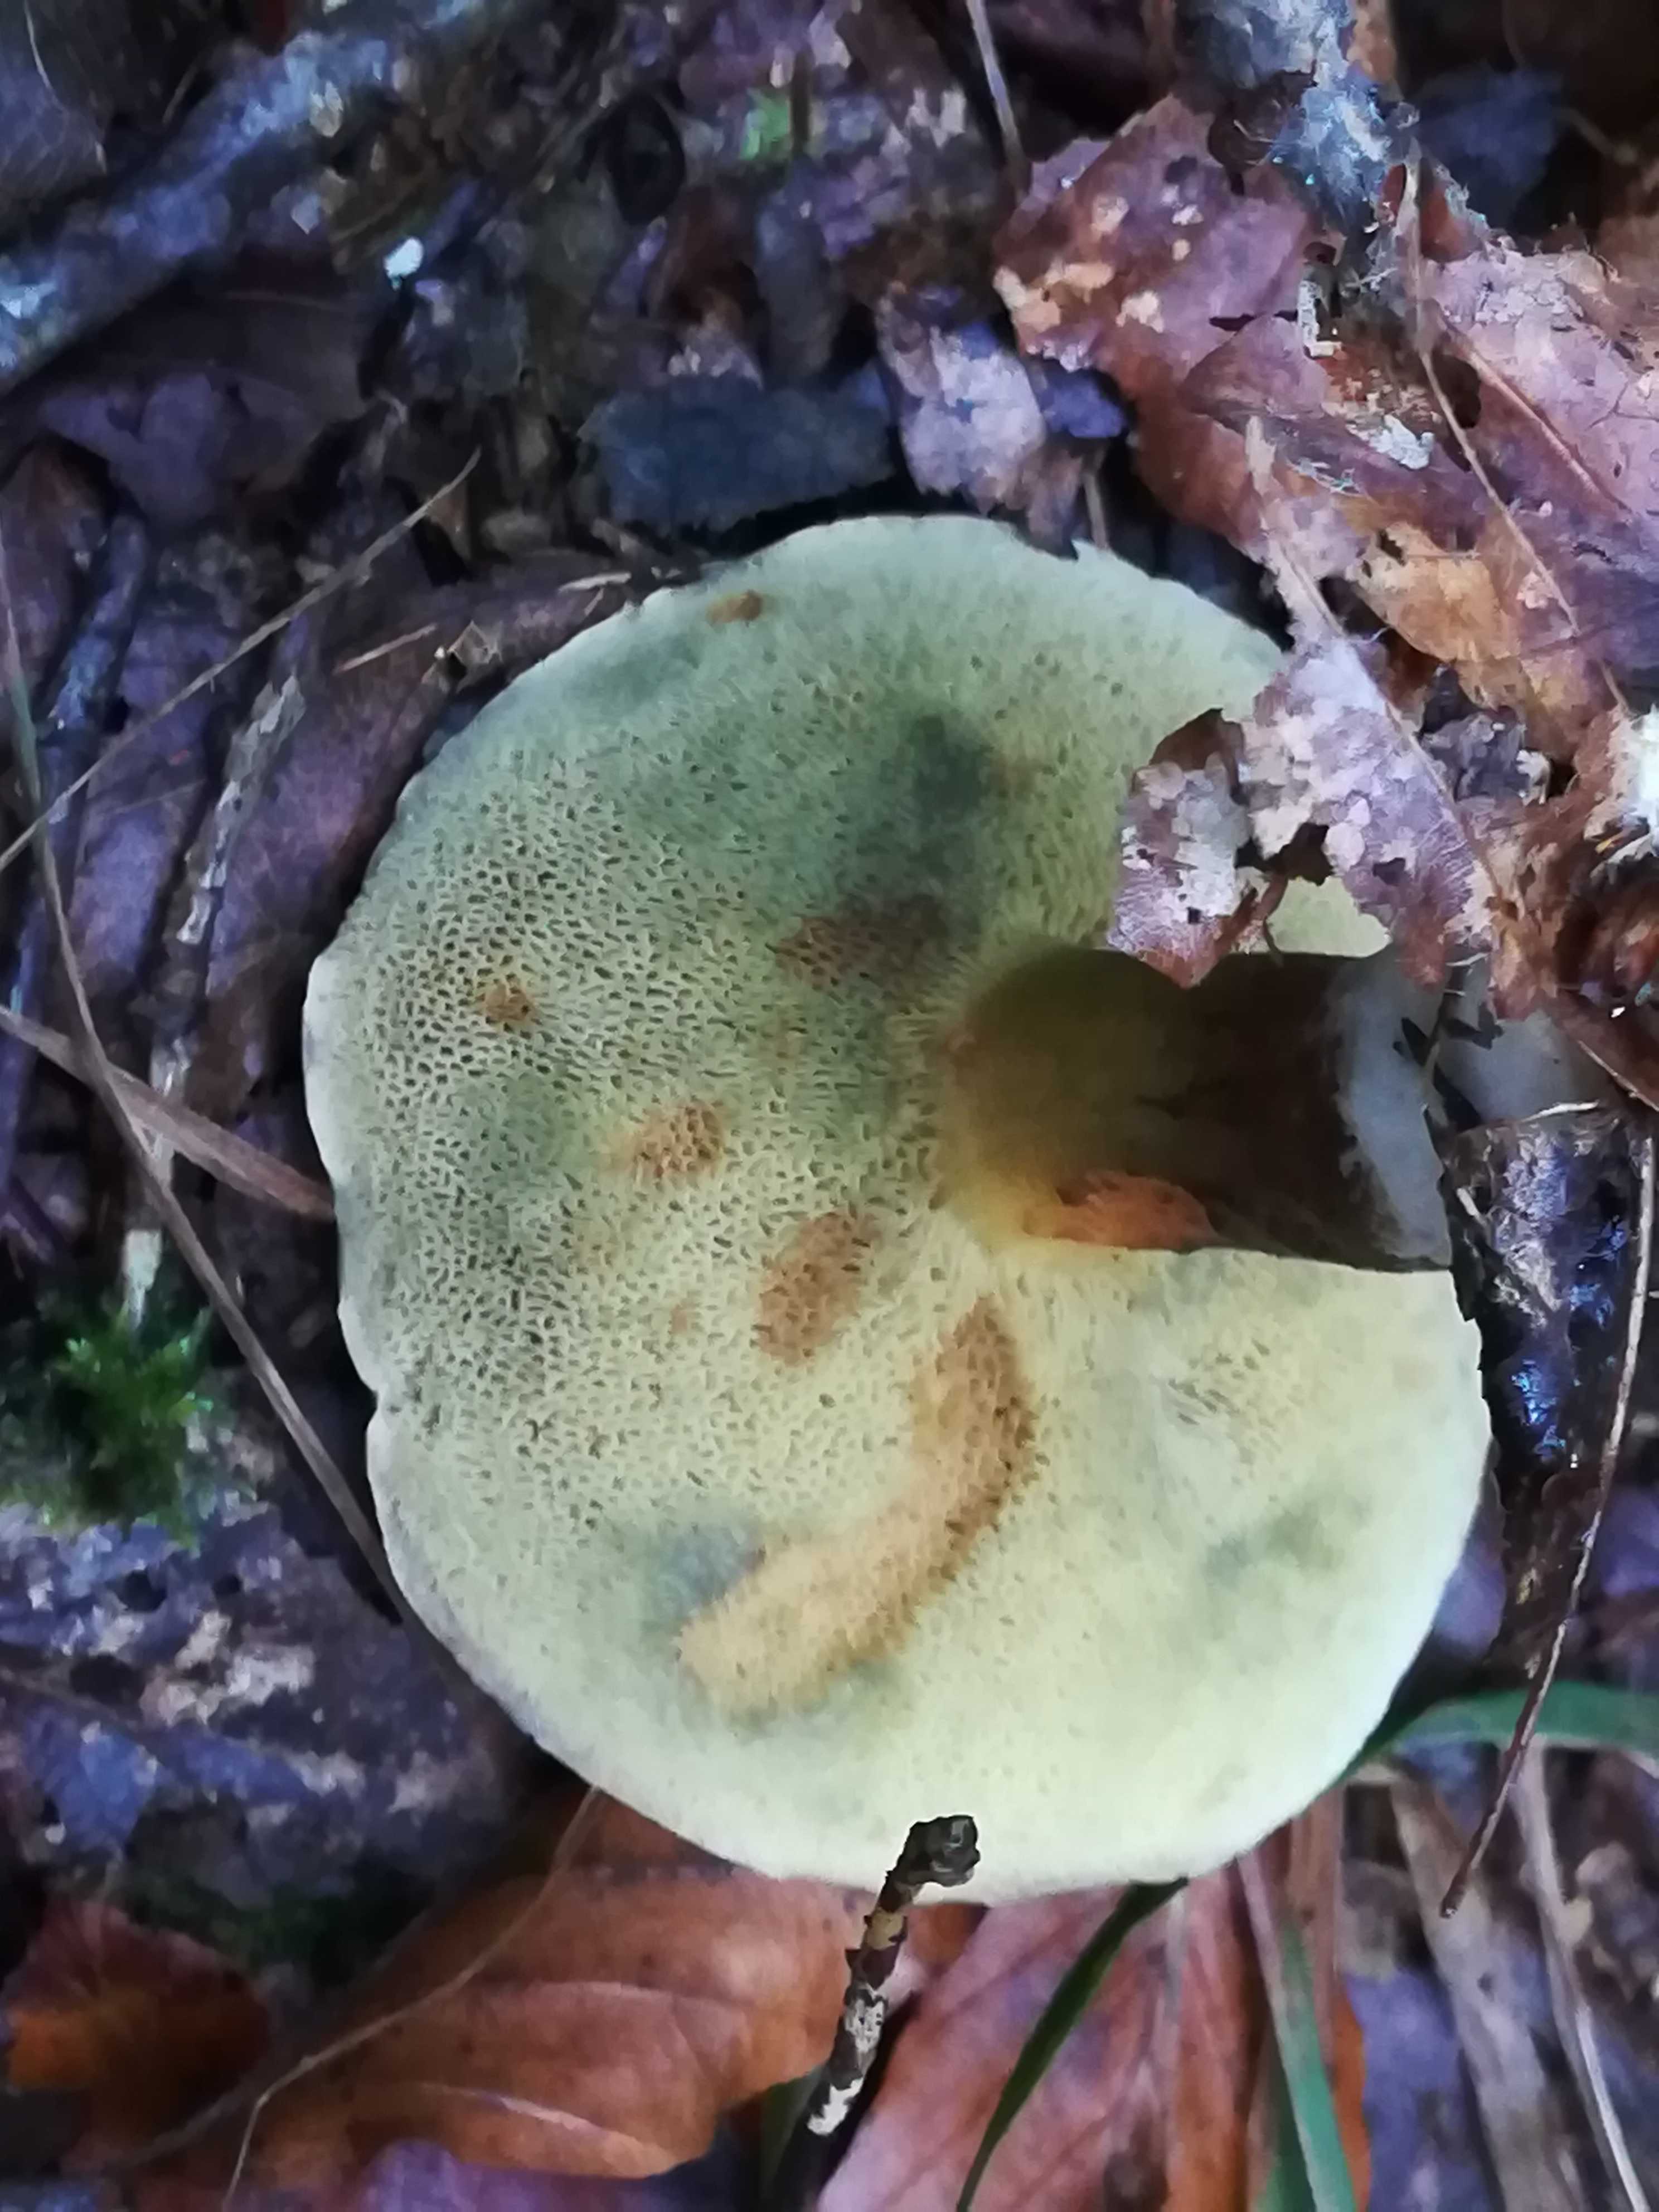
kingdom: Fungi
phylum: Basidiomycota
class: Agaricomycetes
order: Boletales
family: Boletaceae
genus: Xerocomellus
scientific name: Xerocomellus pruinatus
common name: dugget rørhat
